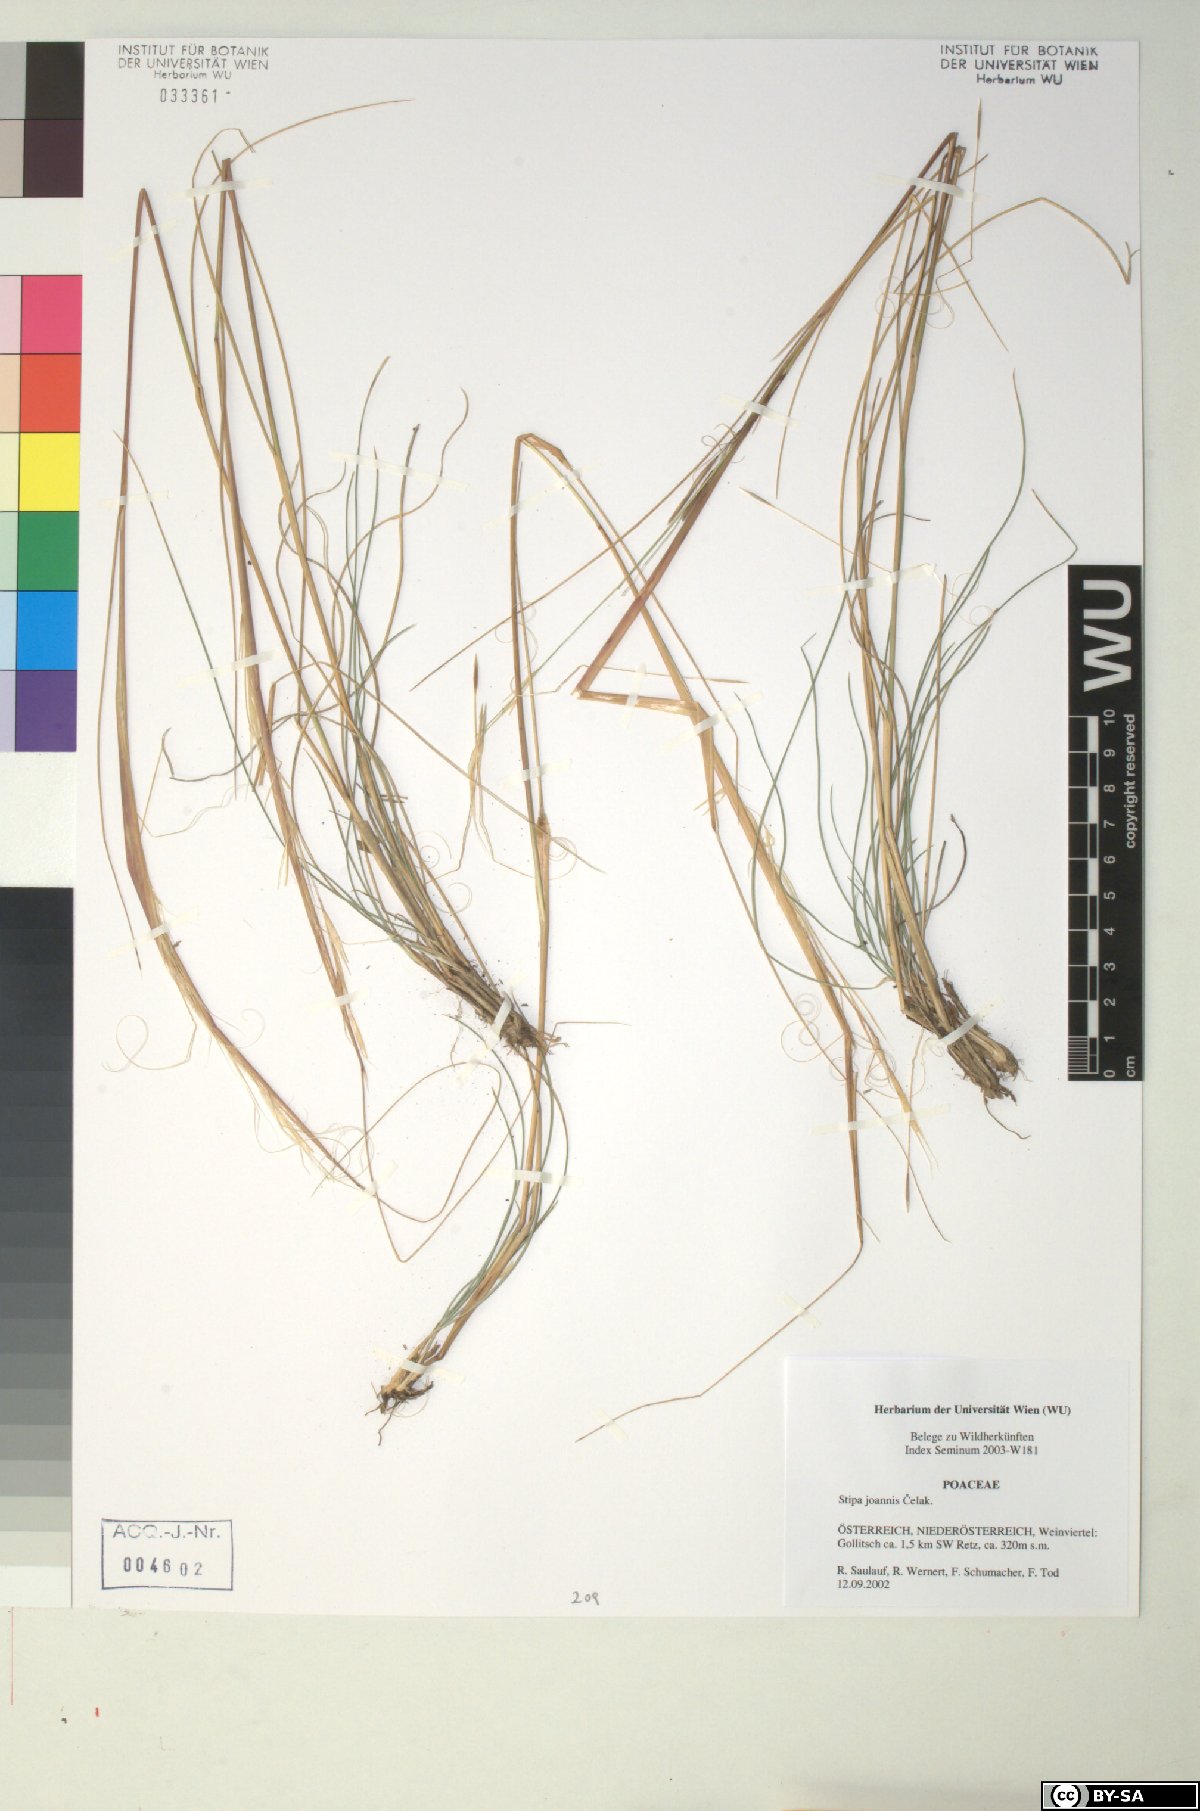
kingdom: Plantae
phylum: Tracheophyta
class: Liliopsida
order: Poales
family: Poaceae
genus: Stipa
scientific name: Stipa capillata
